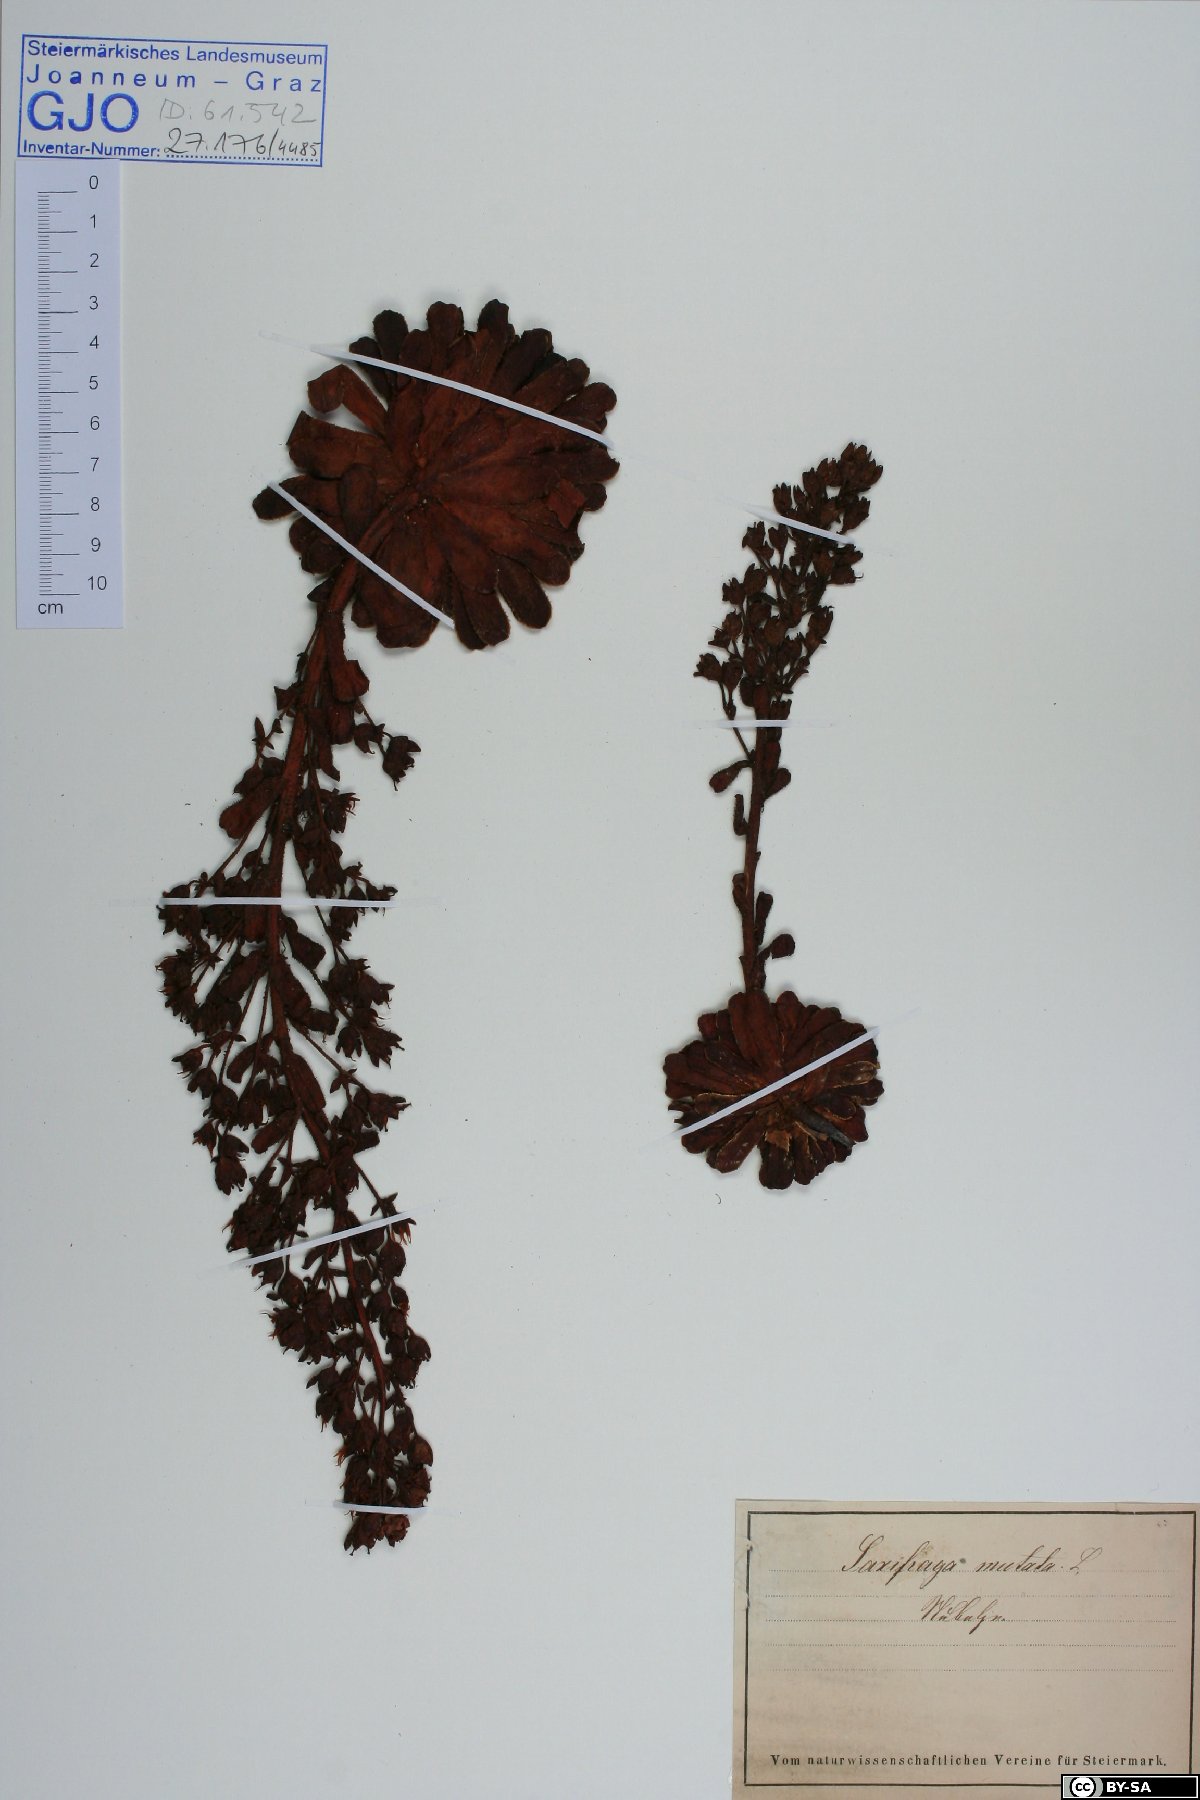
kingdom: Plantae
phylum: Tracheophyta
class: Magnoliopsida
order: Saxifragales
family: Saxifragaceae
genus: Saxifraga
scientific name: Saxifraga mutata
